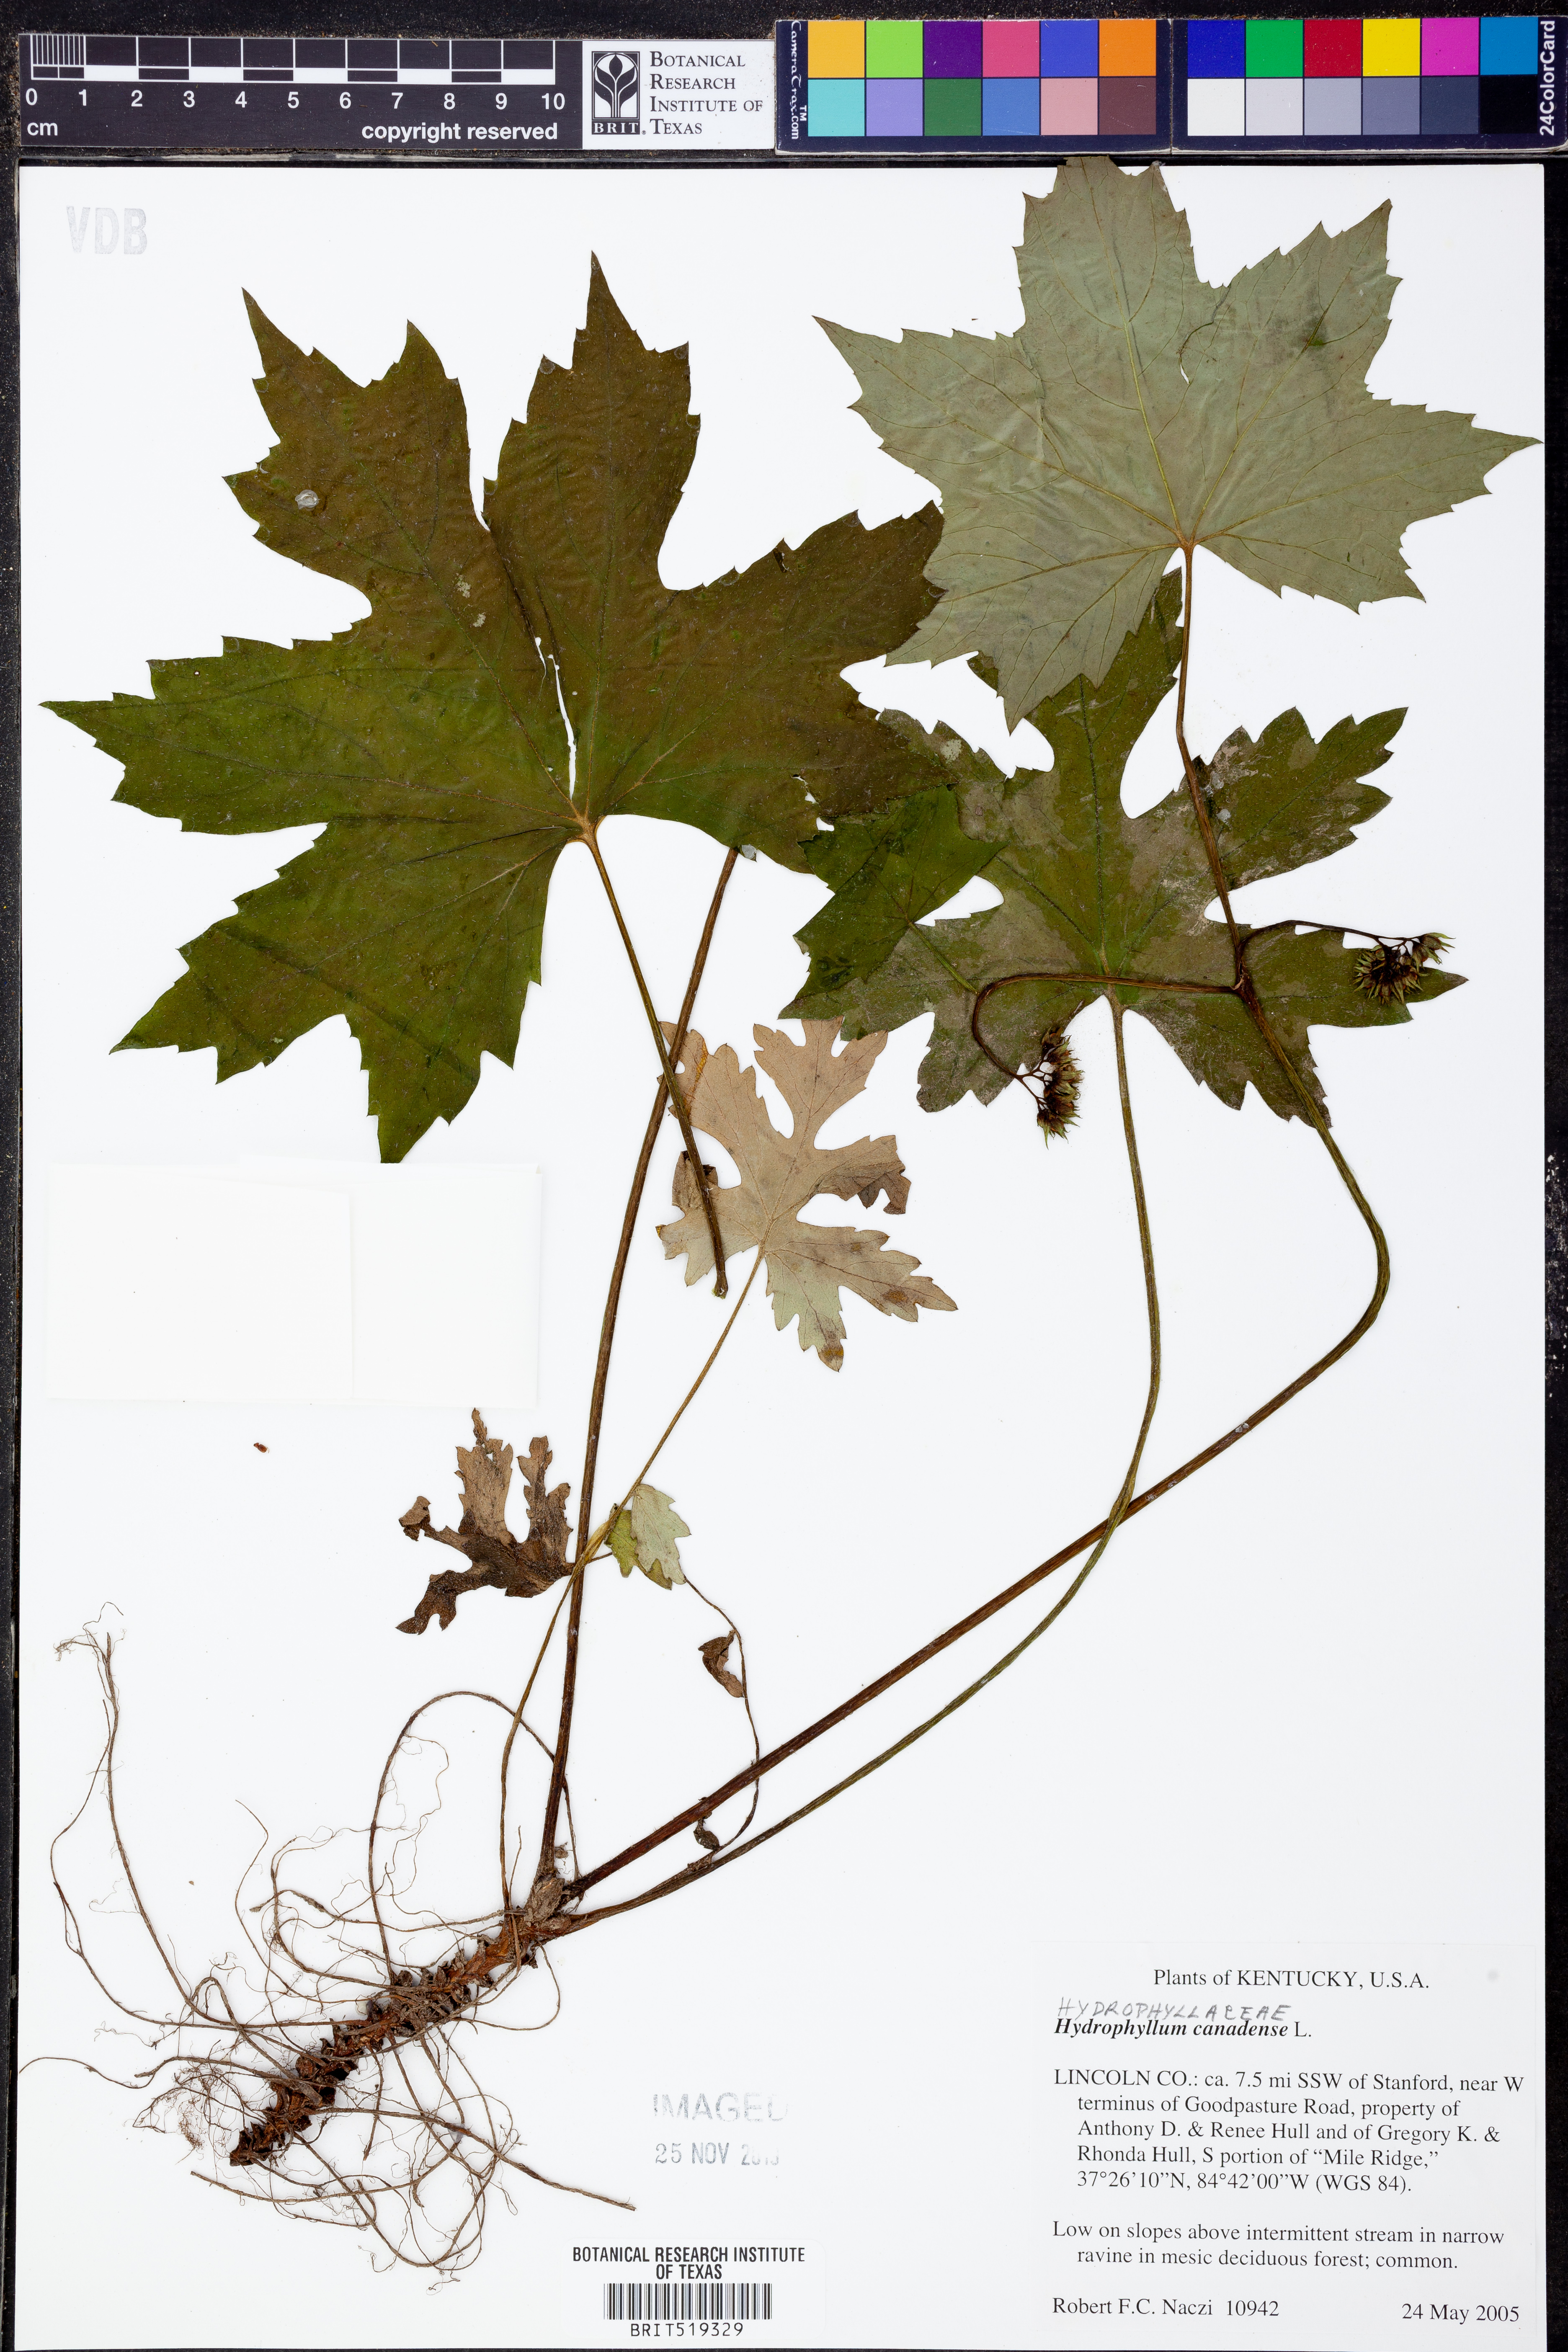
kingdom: Plantae
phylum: Tracheophyta
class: Magnoliopsida
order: Boraginales
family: Hydrophyllaceae
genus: Hydrophyllum
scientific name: Hydrophyllum canadense
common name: Canada waterleaf
